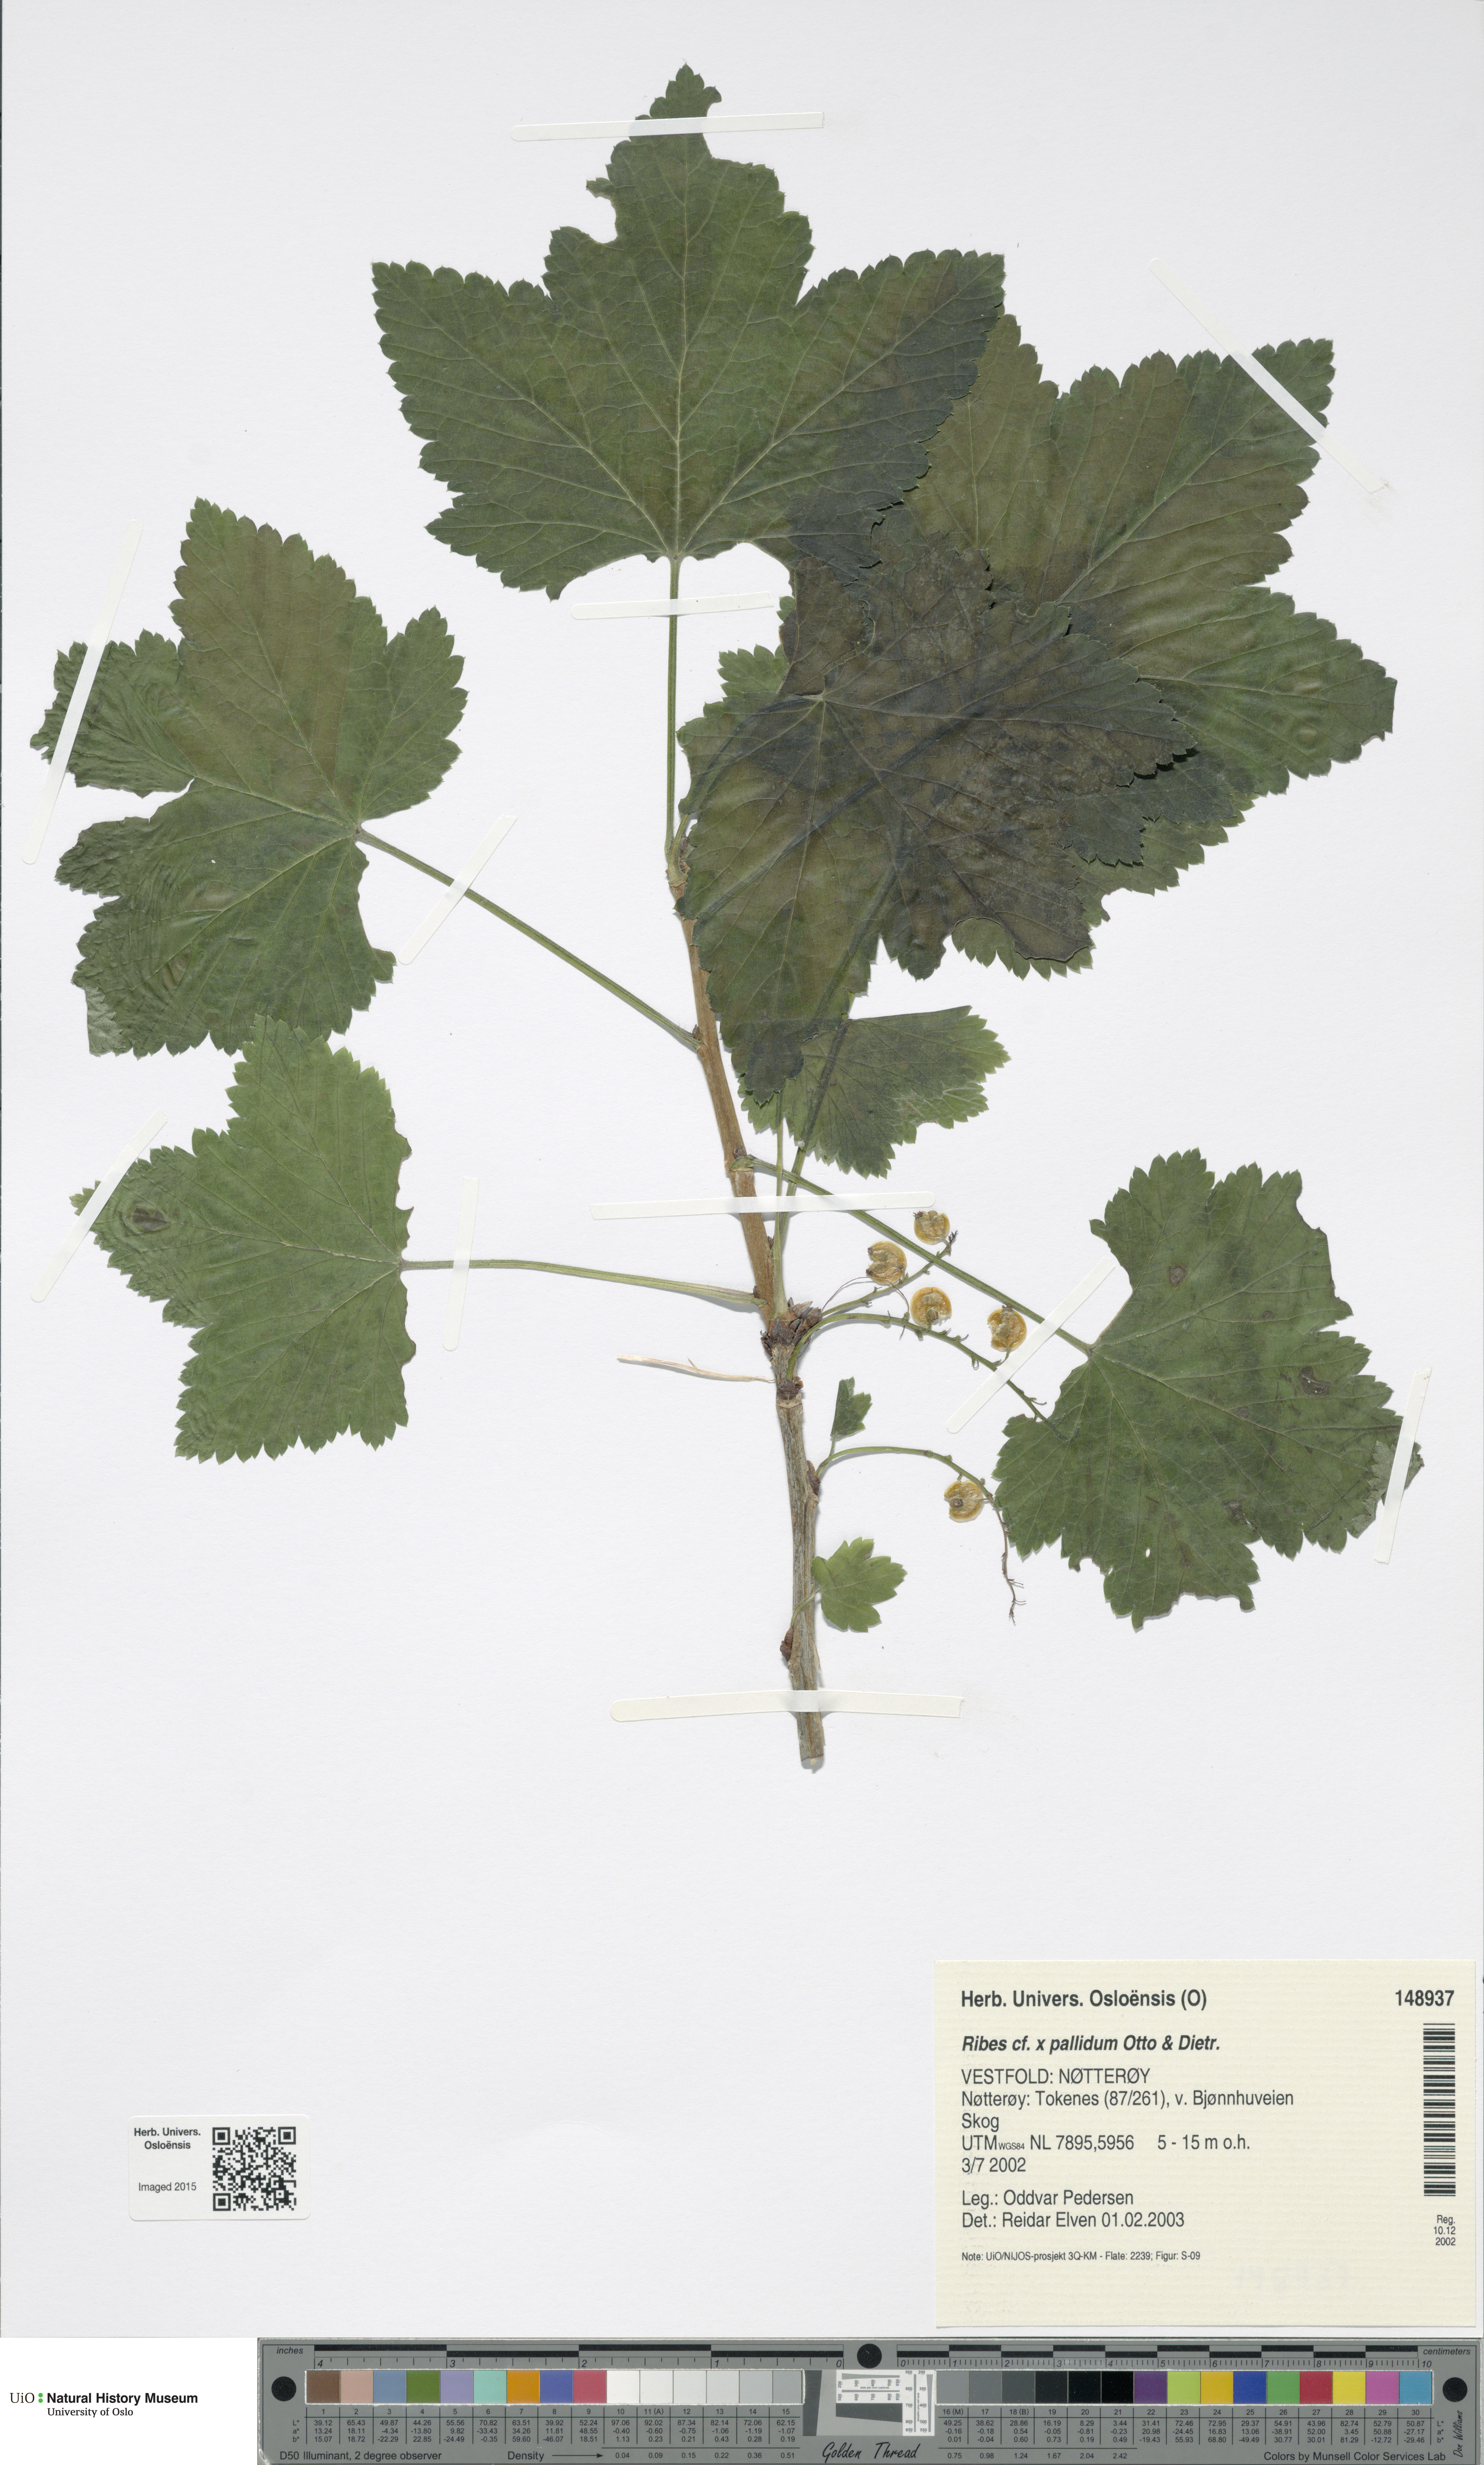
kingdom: Plantae
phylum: Tracheophyta
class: Magnoliopsida
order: Saxifragales
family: Grossulariaceae
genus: Ribes
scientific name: Ribes pallidum
